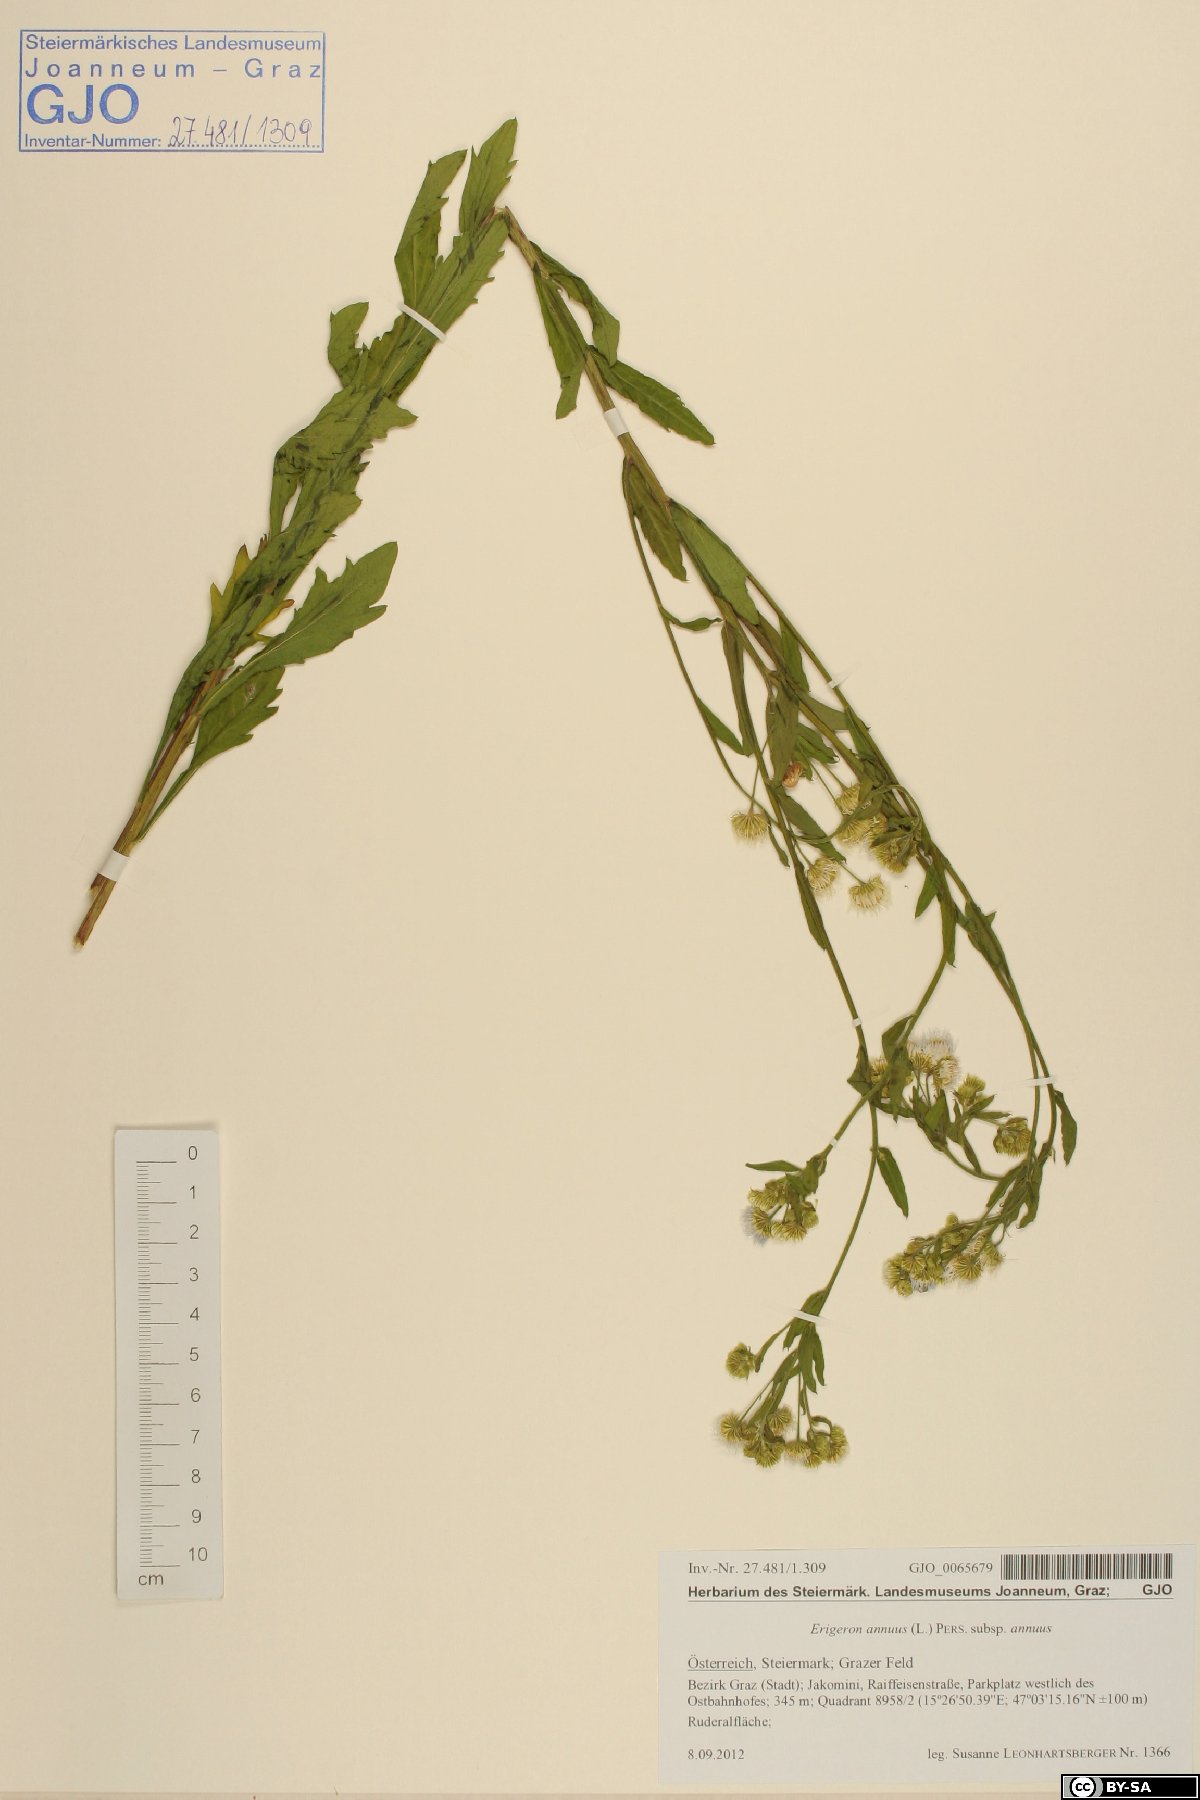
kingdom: Plantae
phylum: Tracheophyta
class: Magnoliopsida
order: Asterales
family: Asteraceae
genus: Erigeron
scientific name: Erigeron annuus
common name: Tall fleabane
